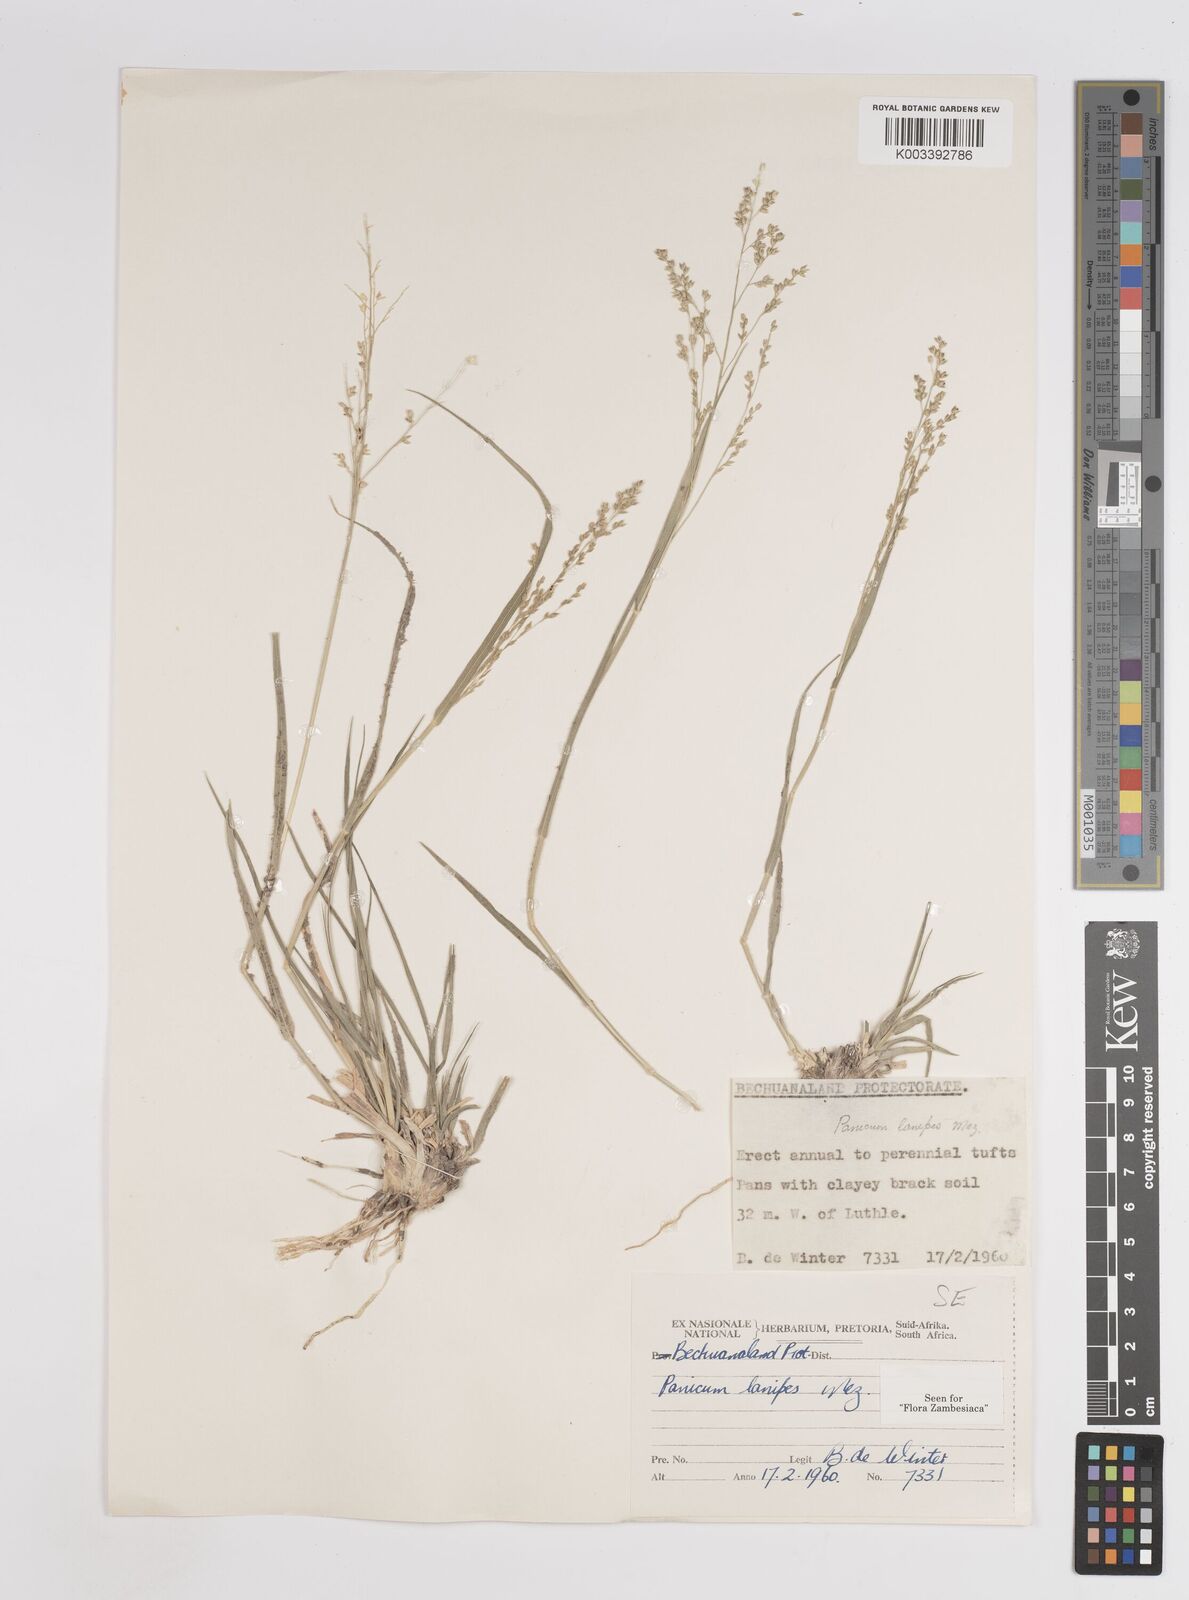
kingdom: Plantae
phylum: Tracheophyta
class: Liliopsida
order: Poales
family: Poaceae
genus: Panicum
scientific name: Panicum lanipes
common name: Wolvoet panicum
